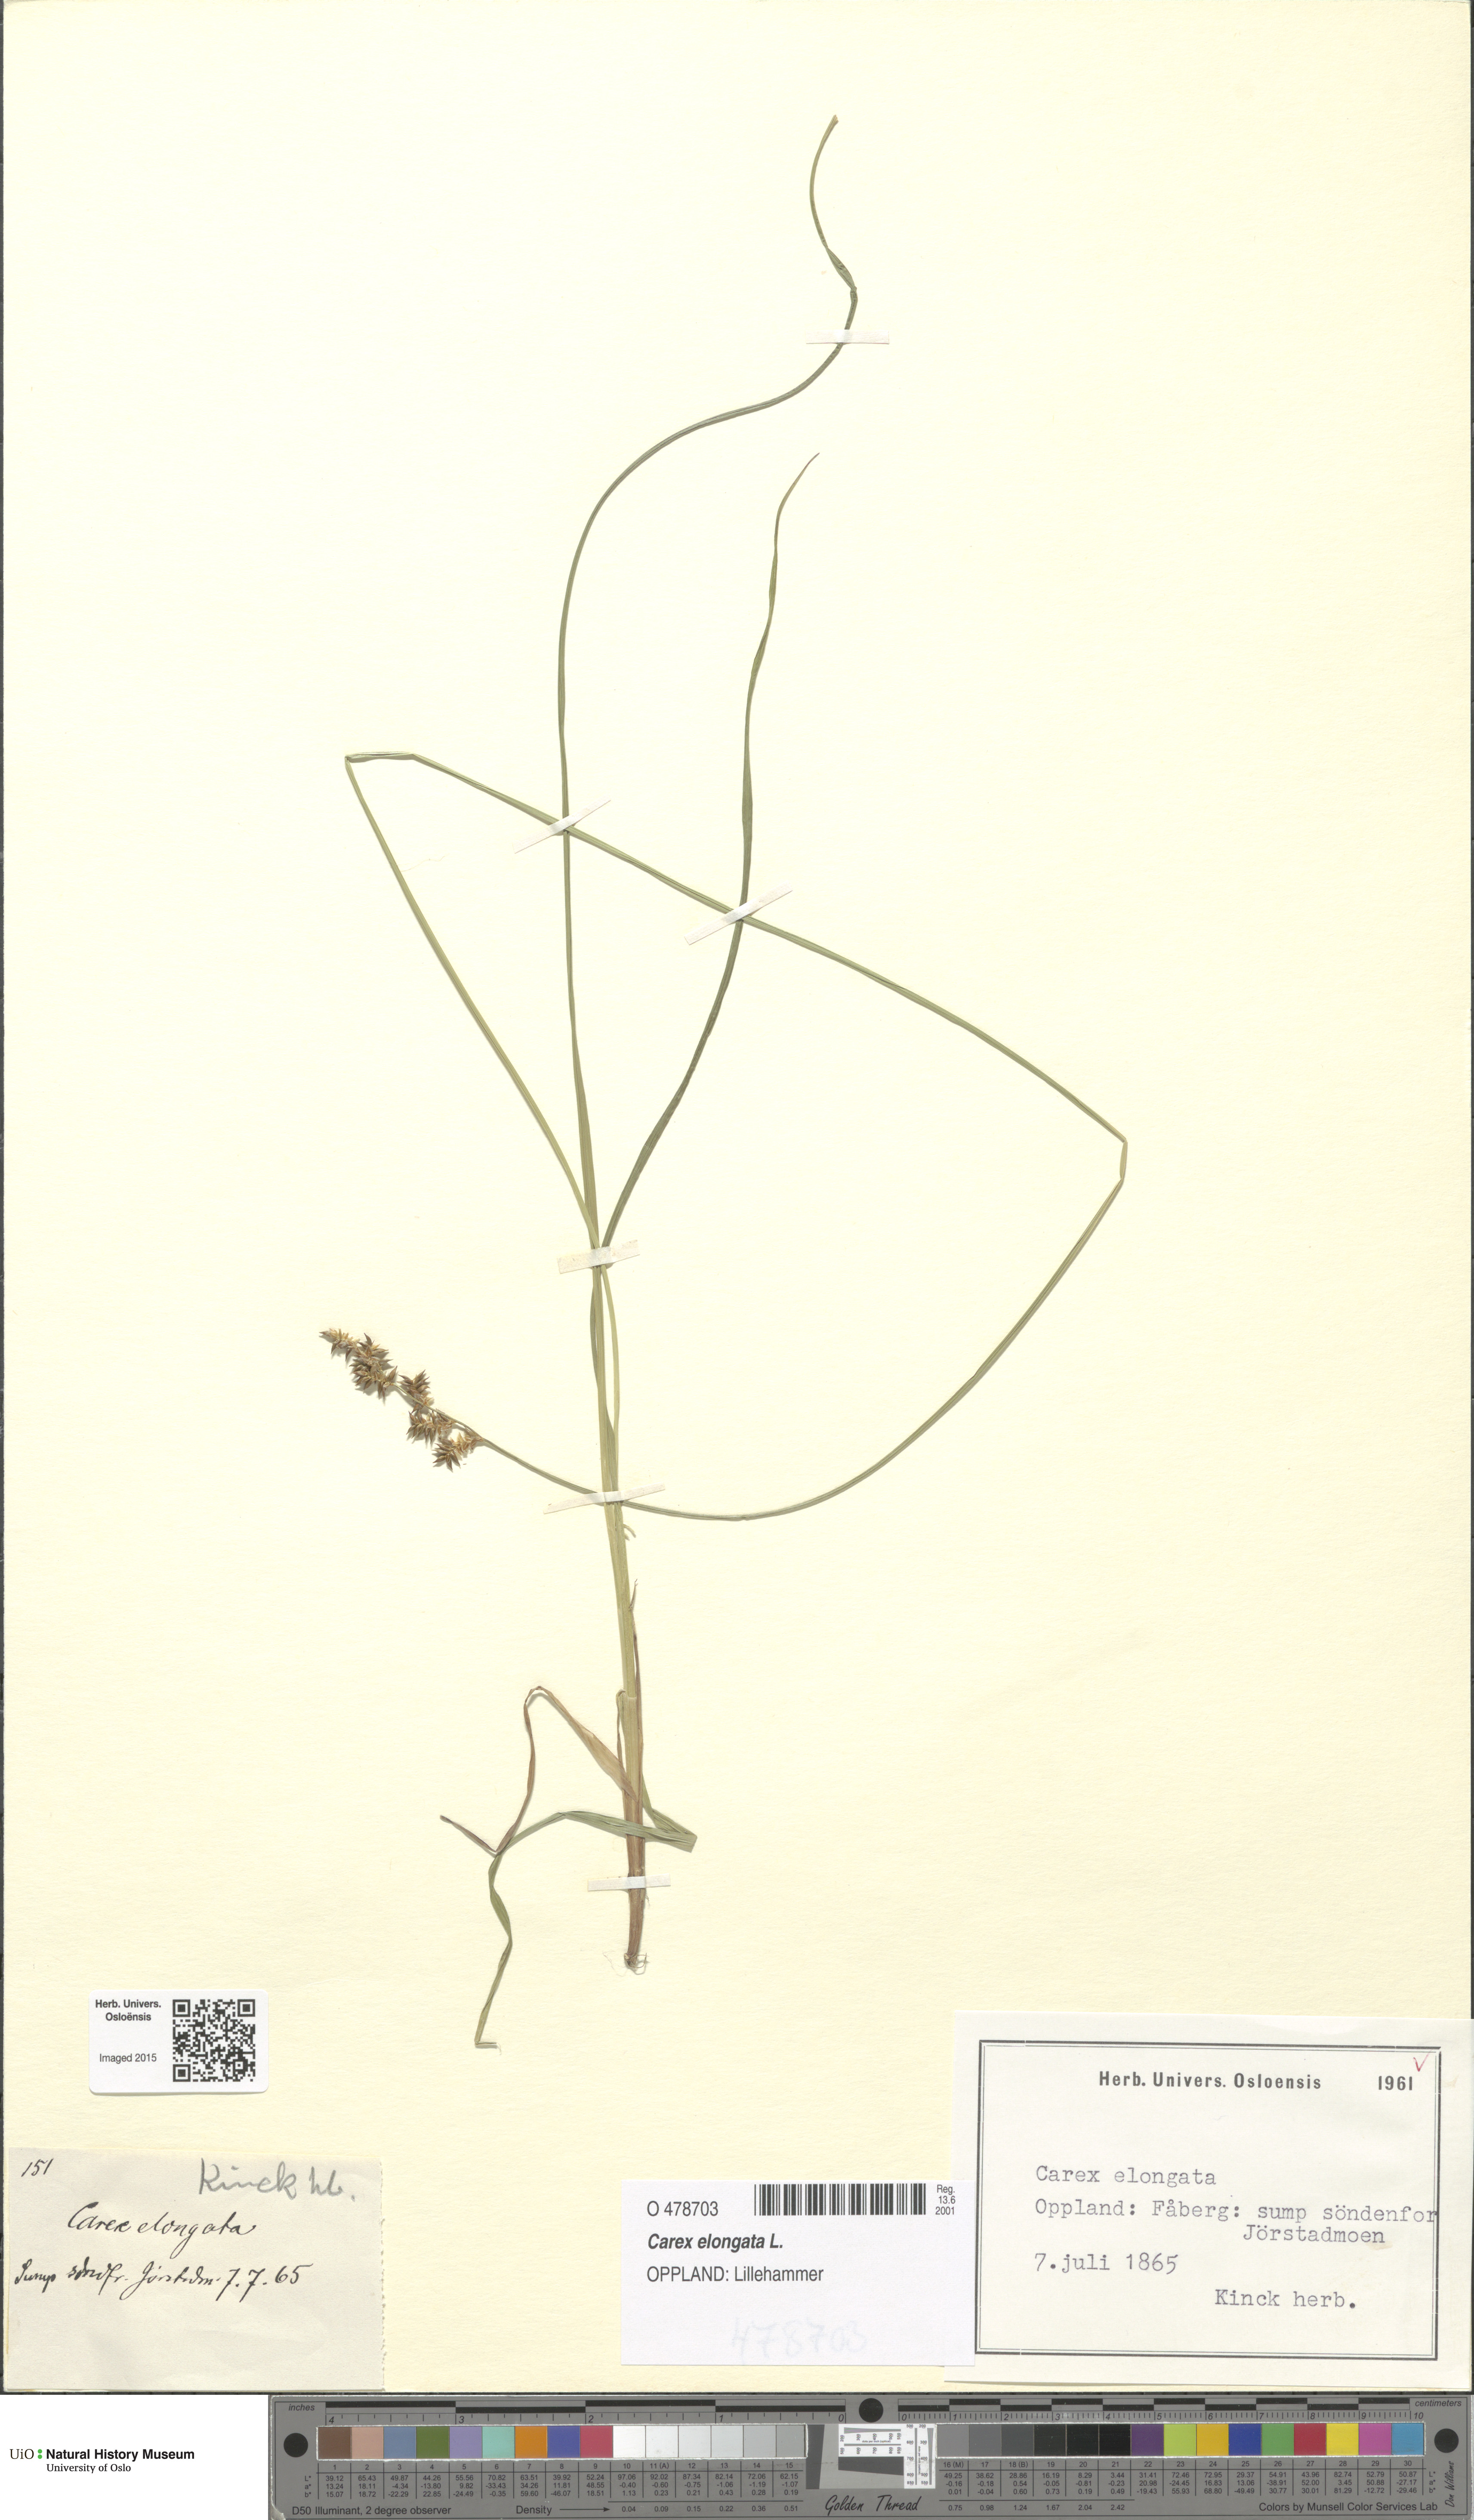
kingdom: Plantae
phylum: Tracheophyta
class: Liliopsida
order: Poales
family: Cyperaceae
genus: Carex
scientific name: Carex elongata
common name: Elongated sedge
